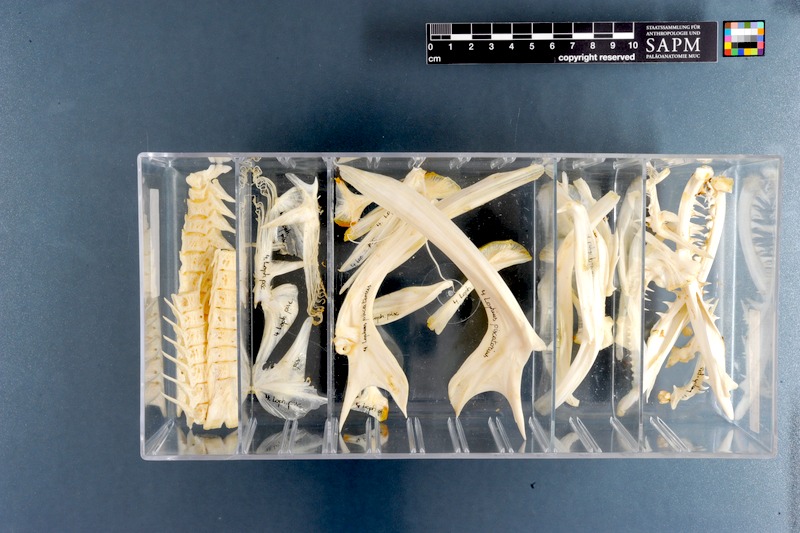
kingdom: Animalia
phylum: Chordata
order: Lophiiformes
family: Lophiidae
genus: Lophius
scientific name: Lophius piscatorius
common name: Angler
